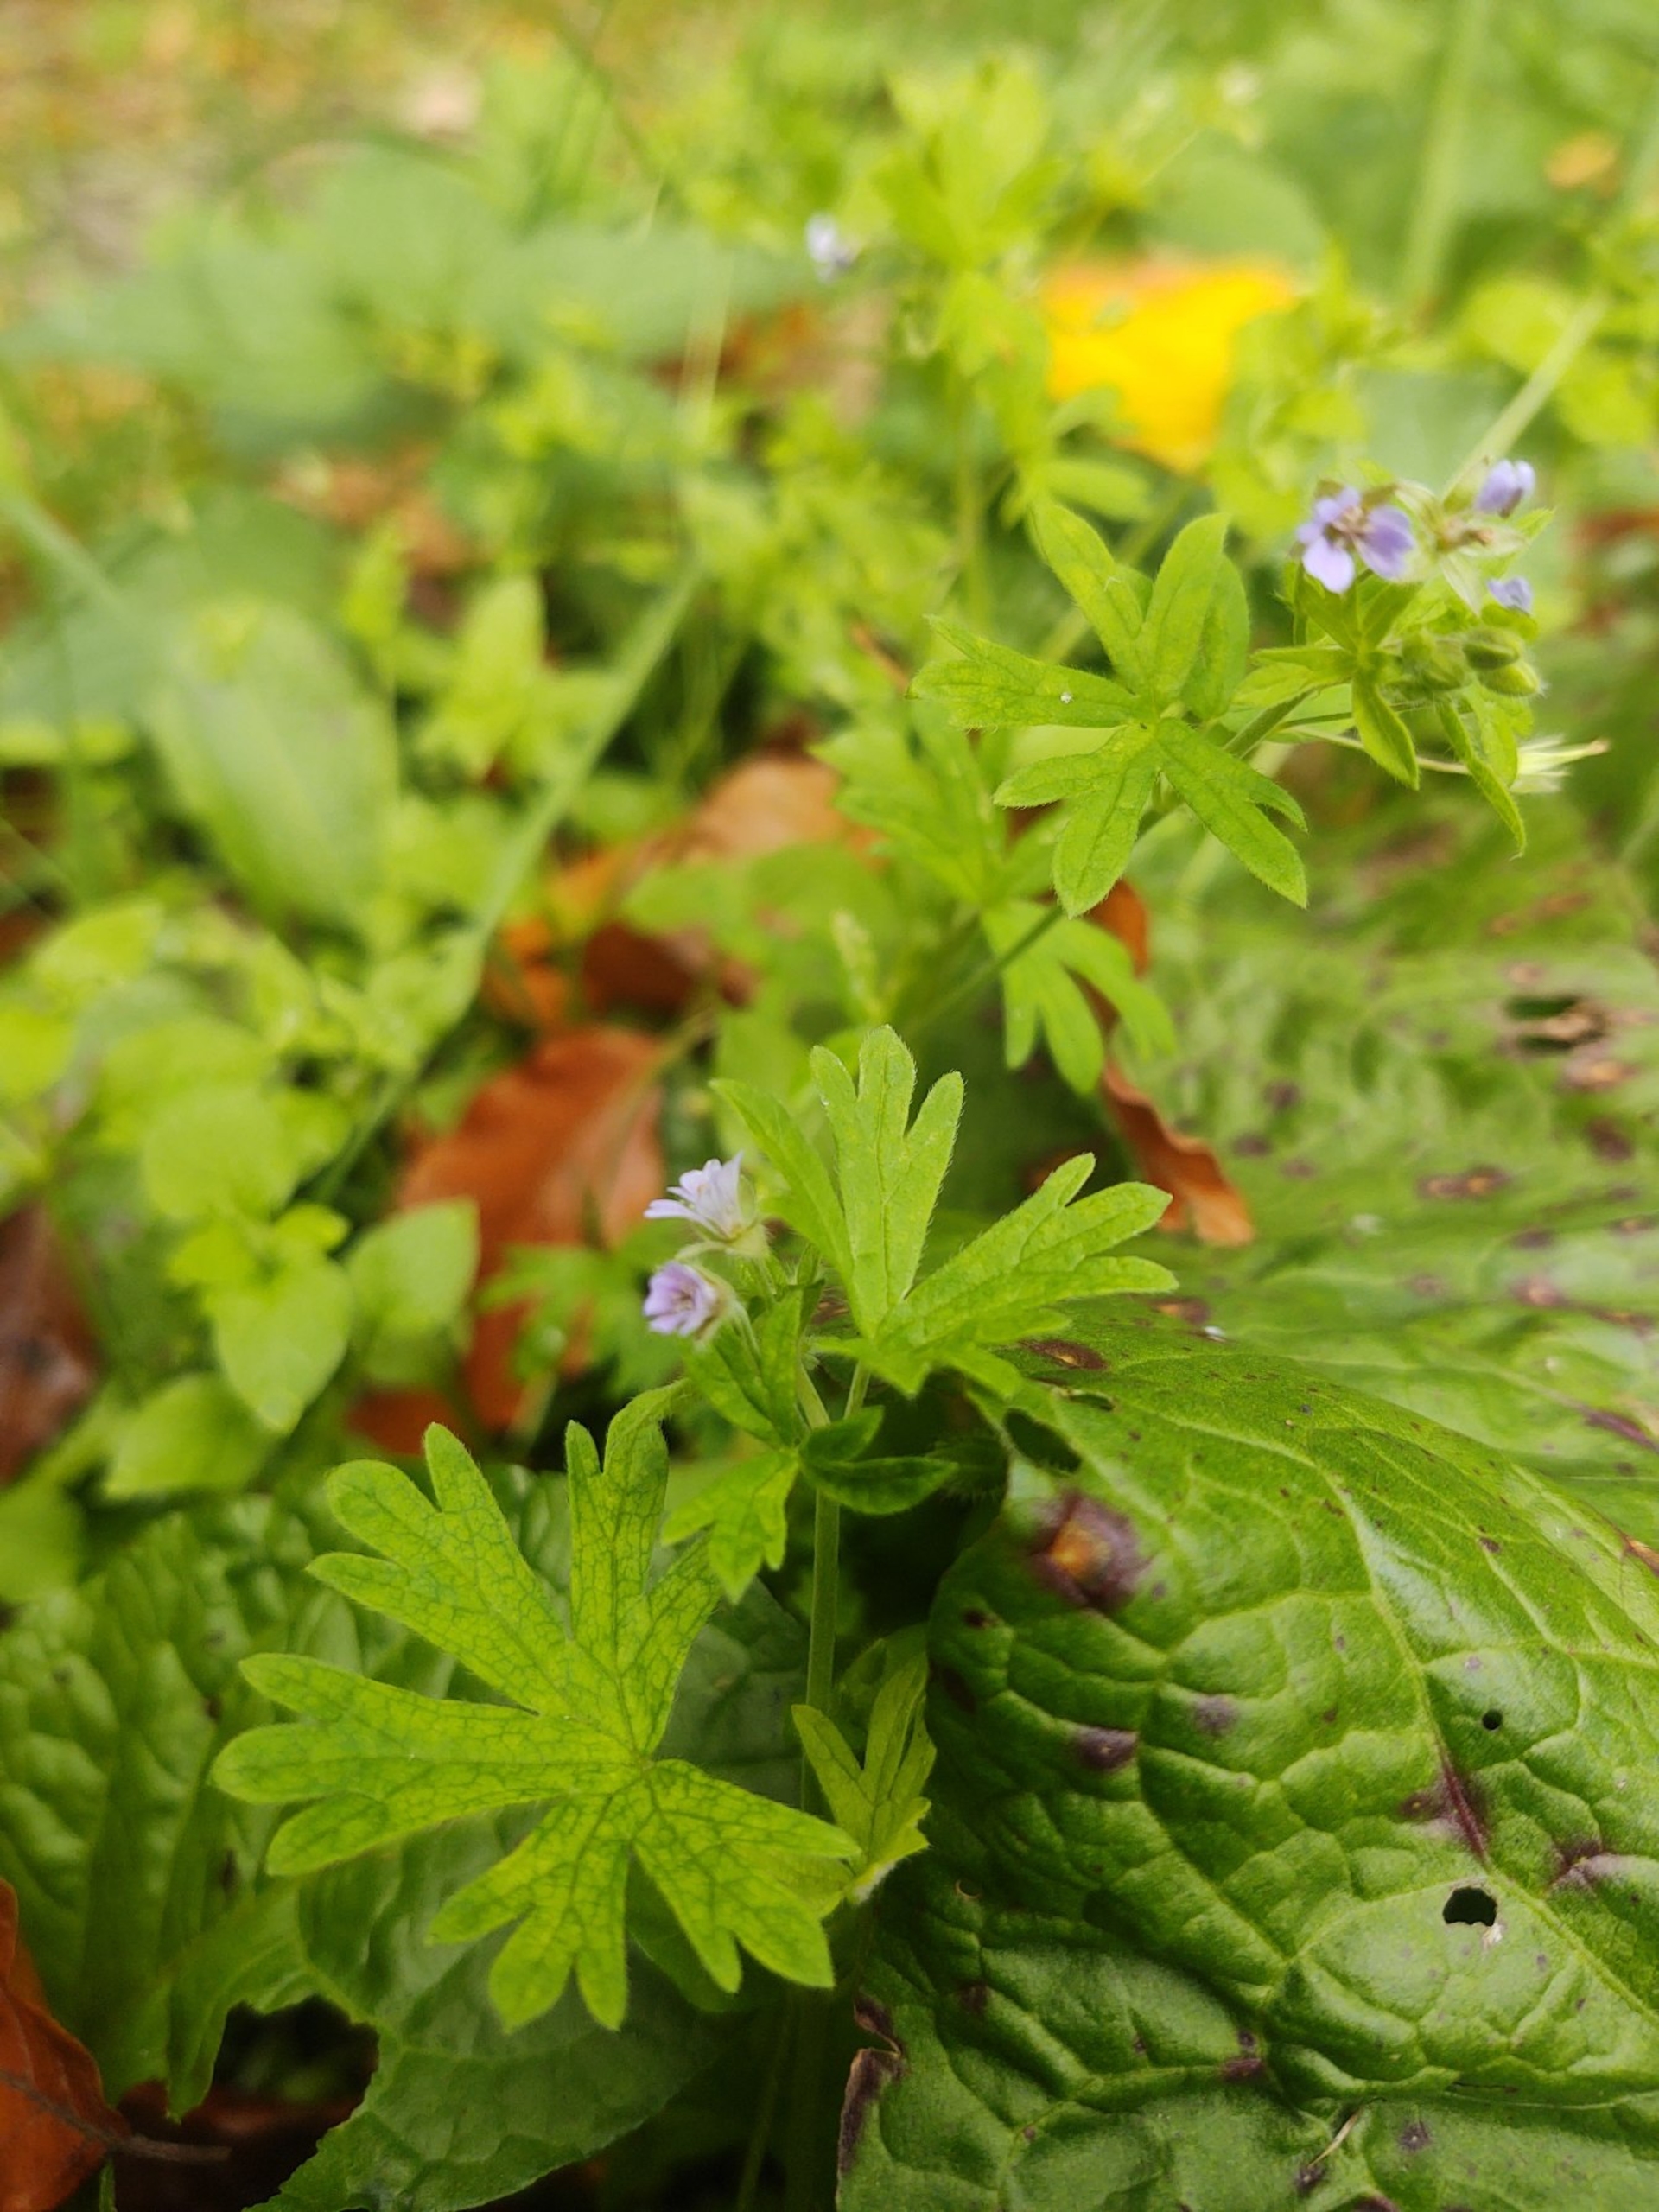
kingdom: Plantae
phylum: Tracheophyta
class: Magnoliopsida
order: Geraniales
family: Geraniaceae
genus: Geranium
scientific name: Geranium pusillum
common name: Liden storkenæb
